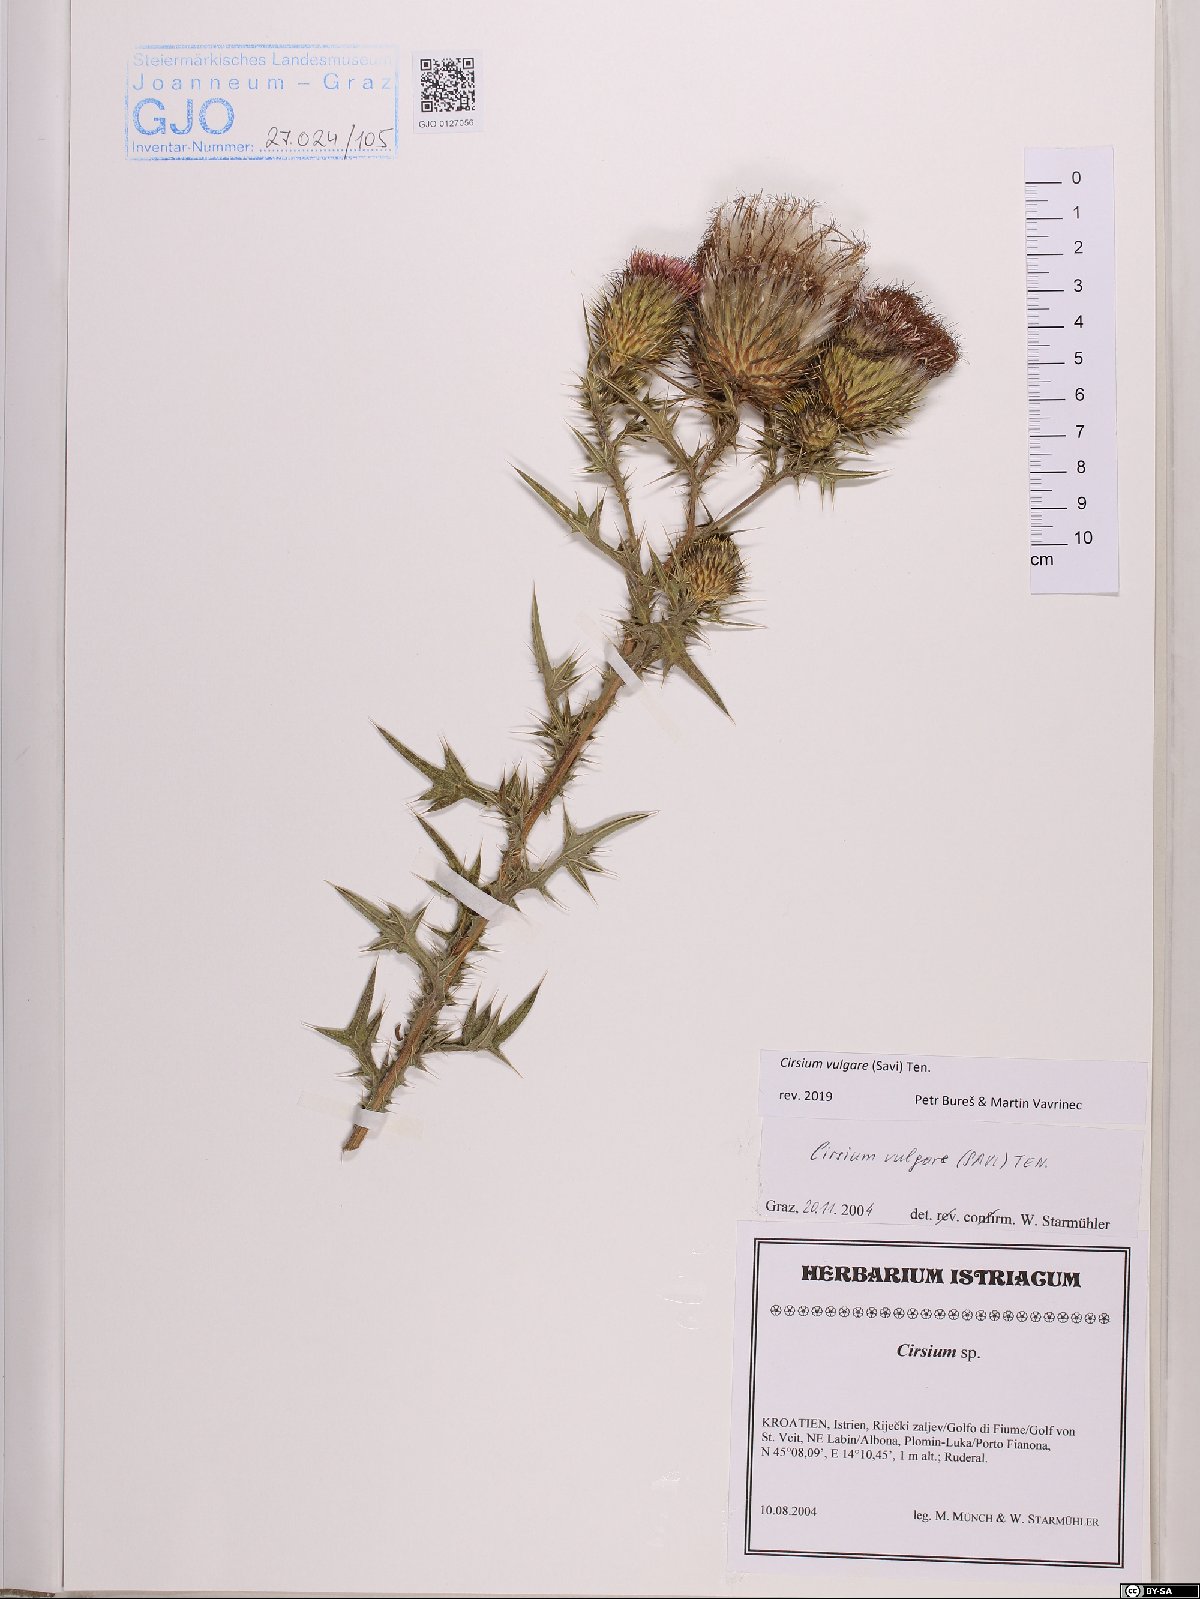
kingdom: Plantae
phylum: Tracheophyta
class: Magnoliopsida
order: Asterales
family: Asteraceae
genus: Cirsium
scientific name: Cirsium vulgare
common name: Bull thistle
